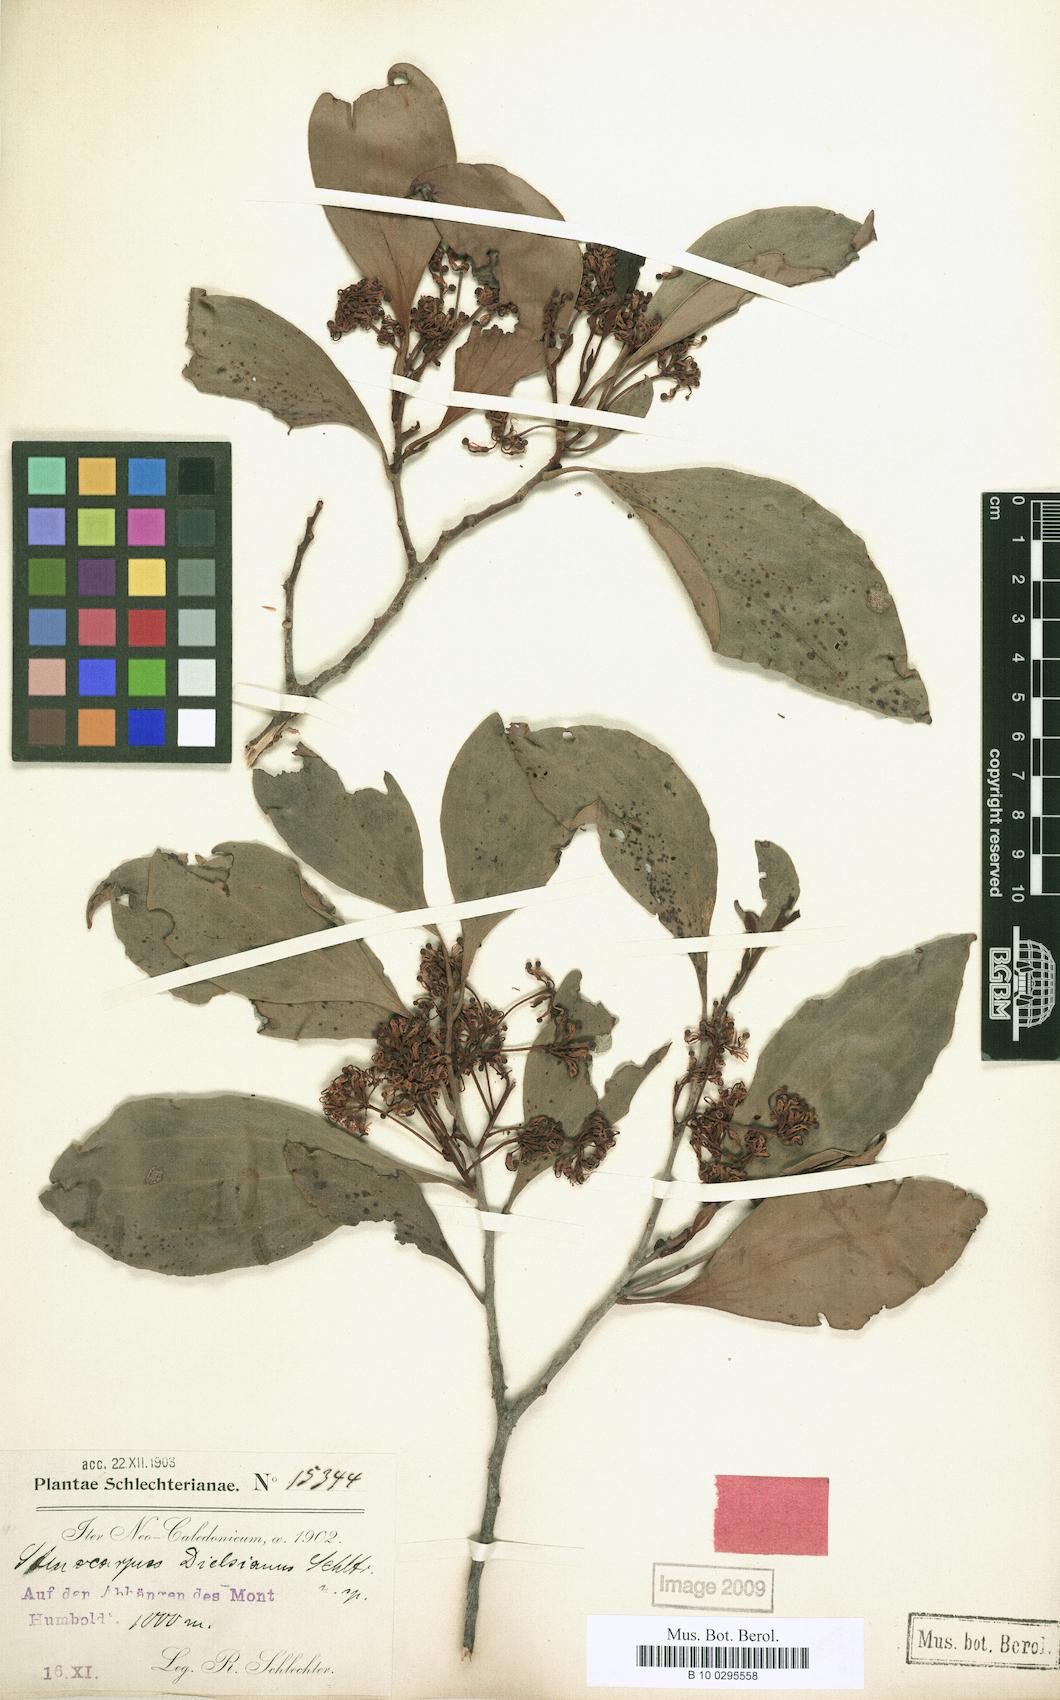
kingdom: Plantae
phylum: Tracheophyta
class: Magnoliopsida
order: Proteales
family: Proteaceae
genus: Stenocarpus
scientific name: Stenocarpus trinervis
